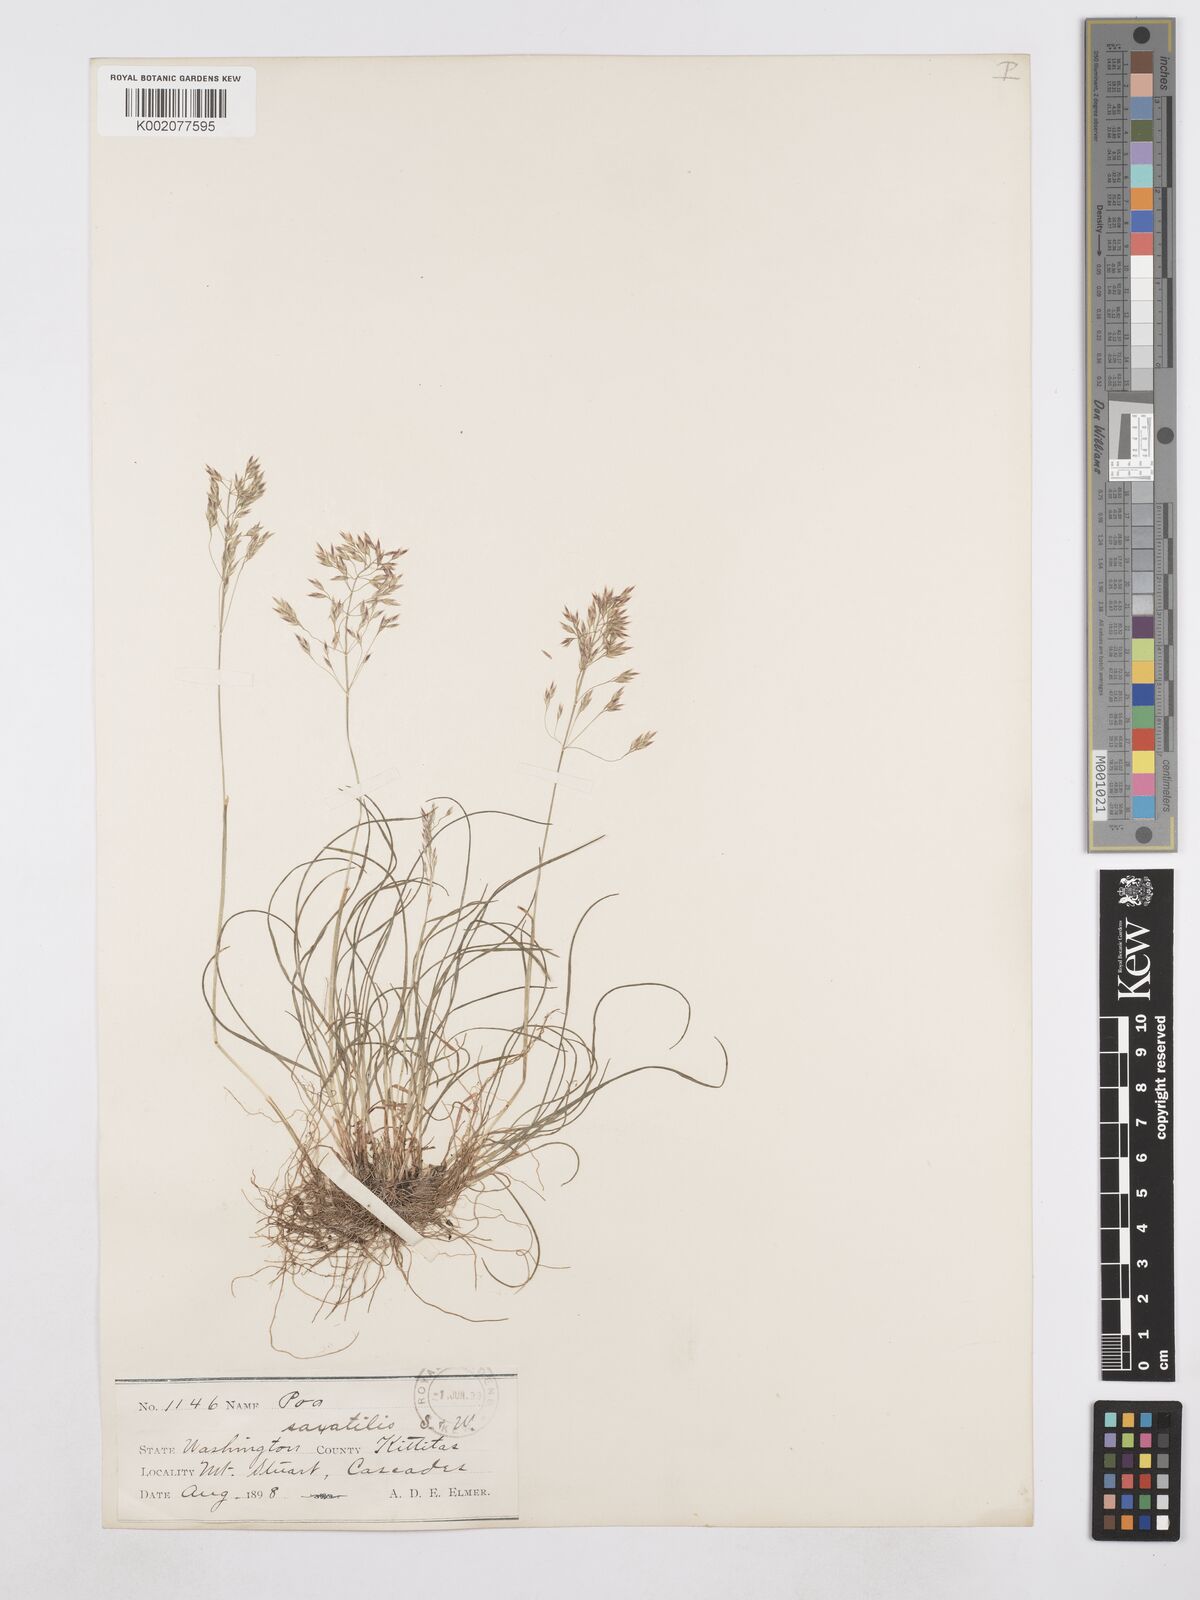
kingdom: Plantae
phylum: Tracheophyta
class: Liliopsida
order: Poales
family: Poaceae
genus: Poa
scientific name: Poa secunda
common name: Sandberg bluegrass
